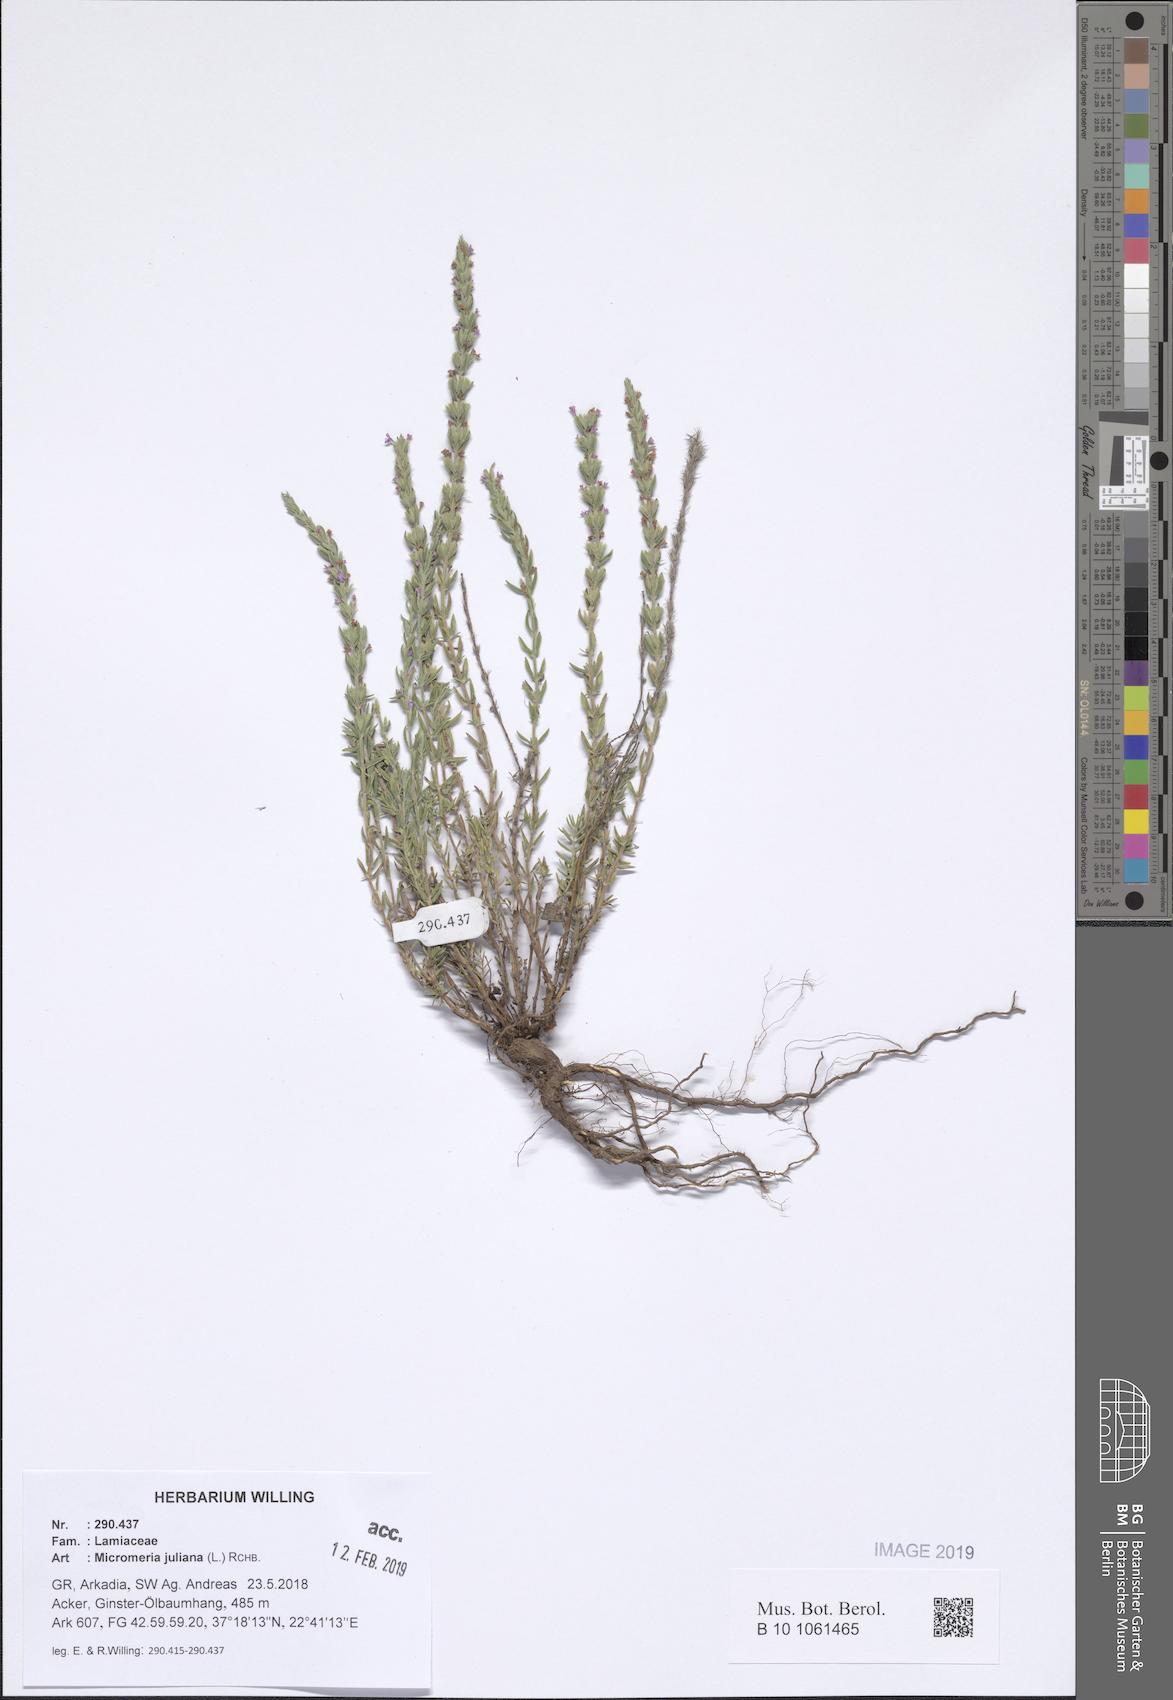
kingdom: Plantae
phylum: Tracheophyta
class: Magnoliopsida
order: Lamiales
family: Lamiaceae
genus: Micromeria
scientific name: Micromeria juliana
